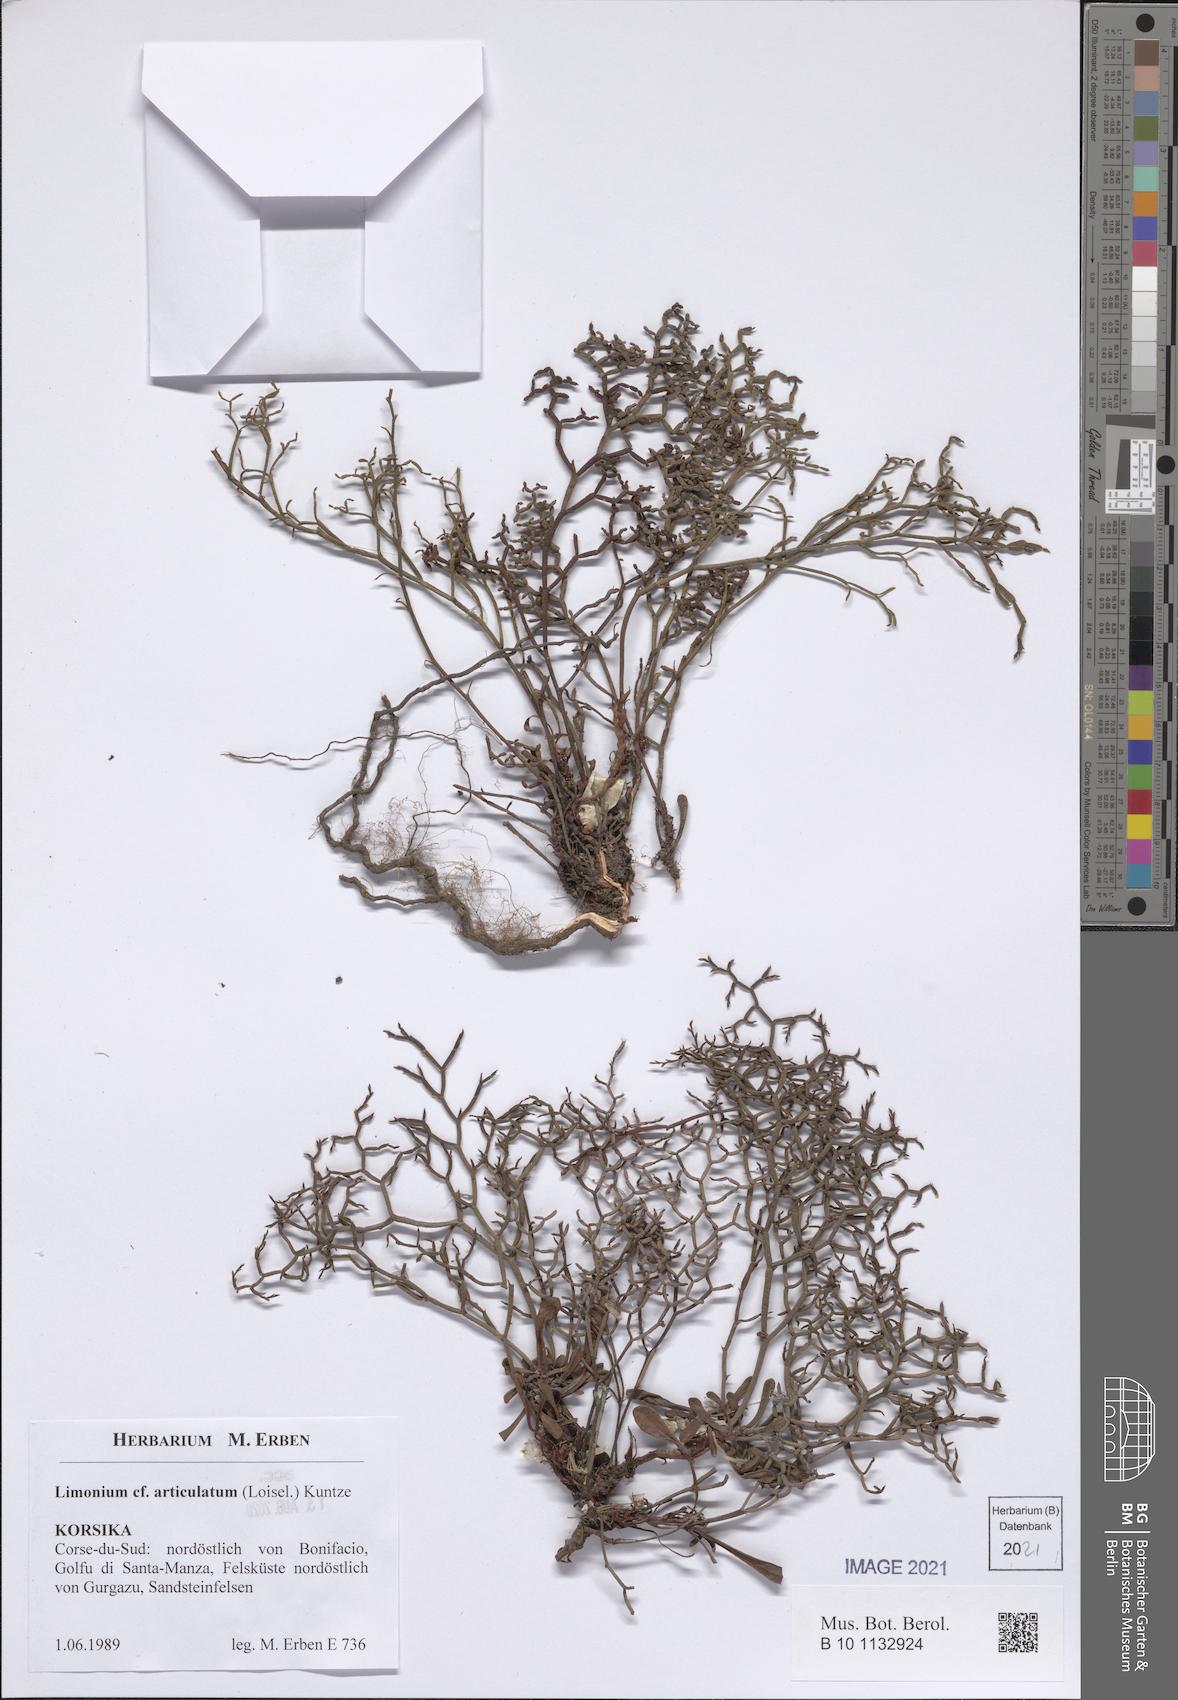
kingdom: Plantae
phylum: Tracheophyta
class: Magnoliopsida
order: Caryophyllales
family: Plumbaginaceae
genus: Limonium
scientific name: Limonium articulatum
